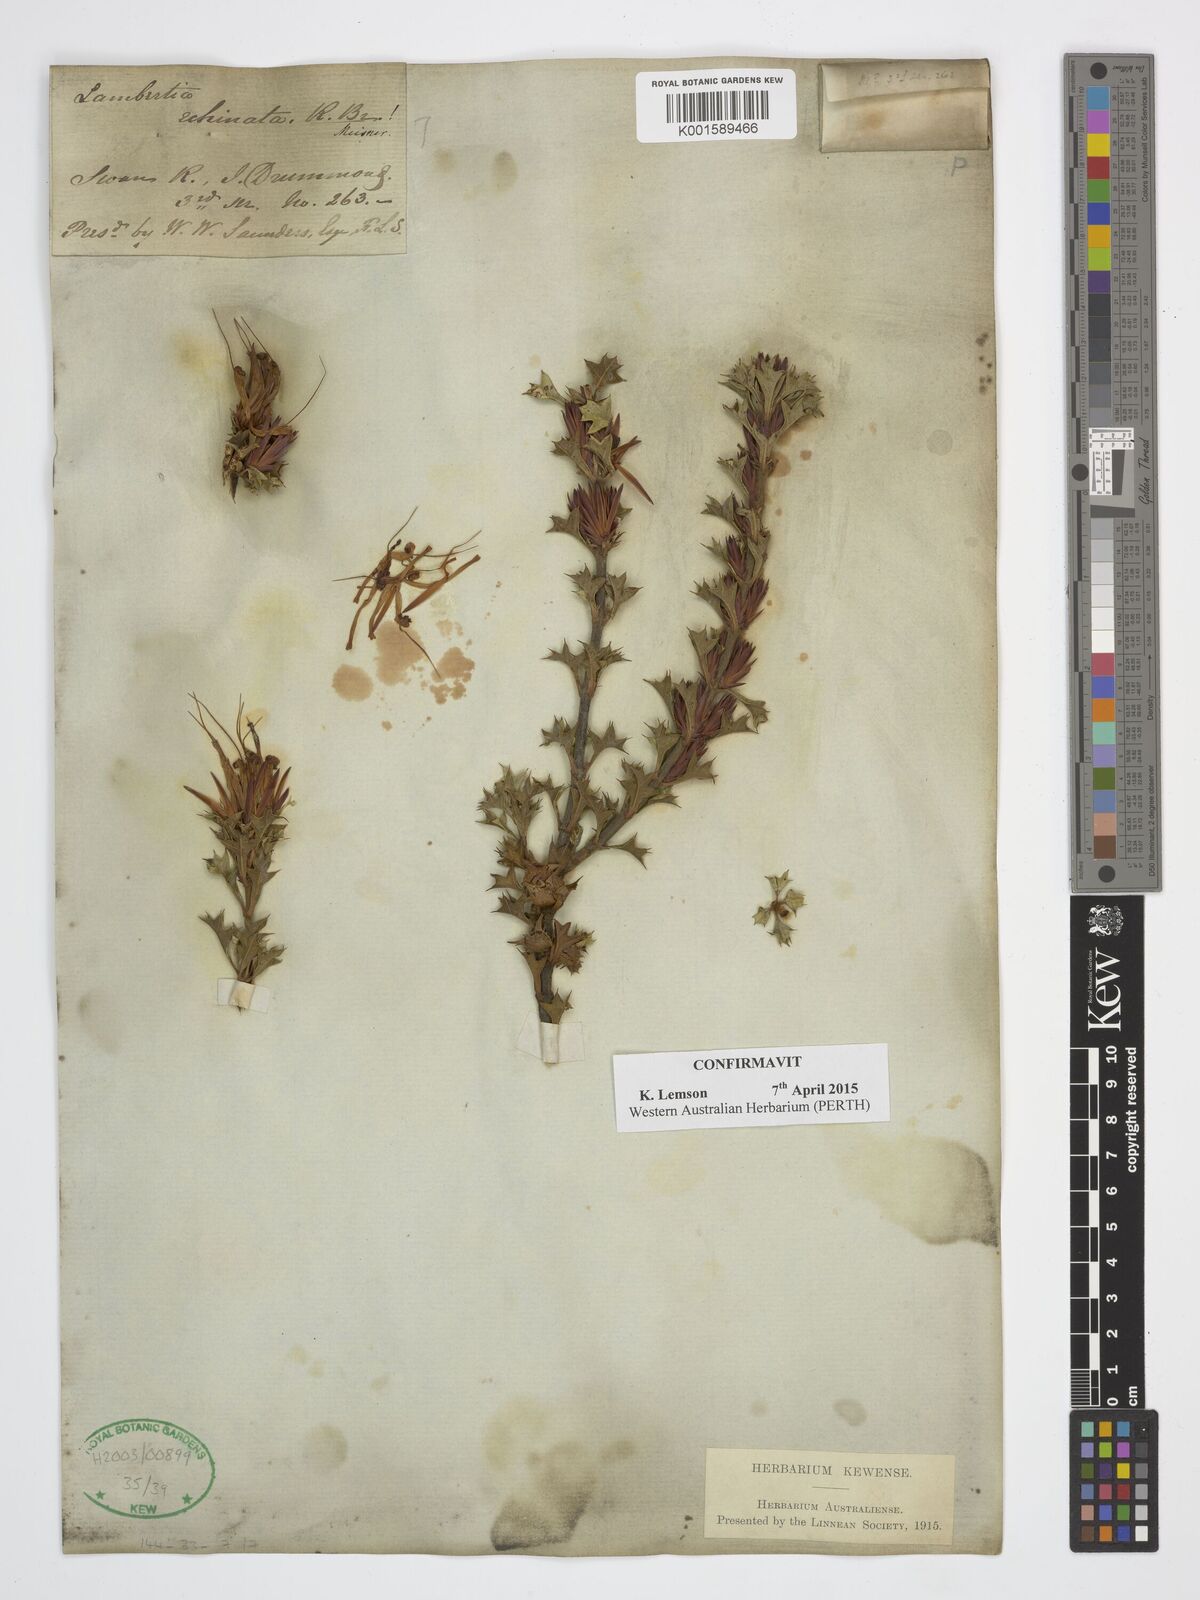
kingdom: Plantae
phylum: Tracheophyta
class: Magnoliopsida
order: Proteales
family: Proteaceae
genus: Lambertia
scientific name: Lambertia echinata
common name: Prickly honeysuckle
